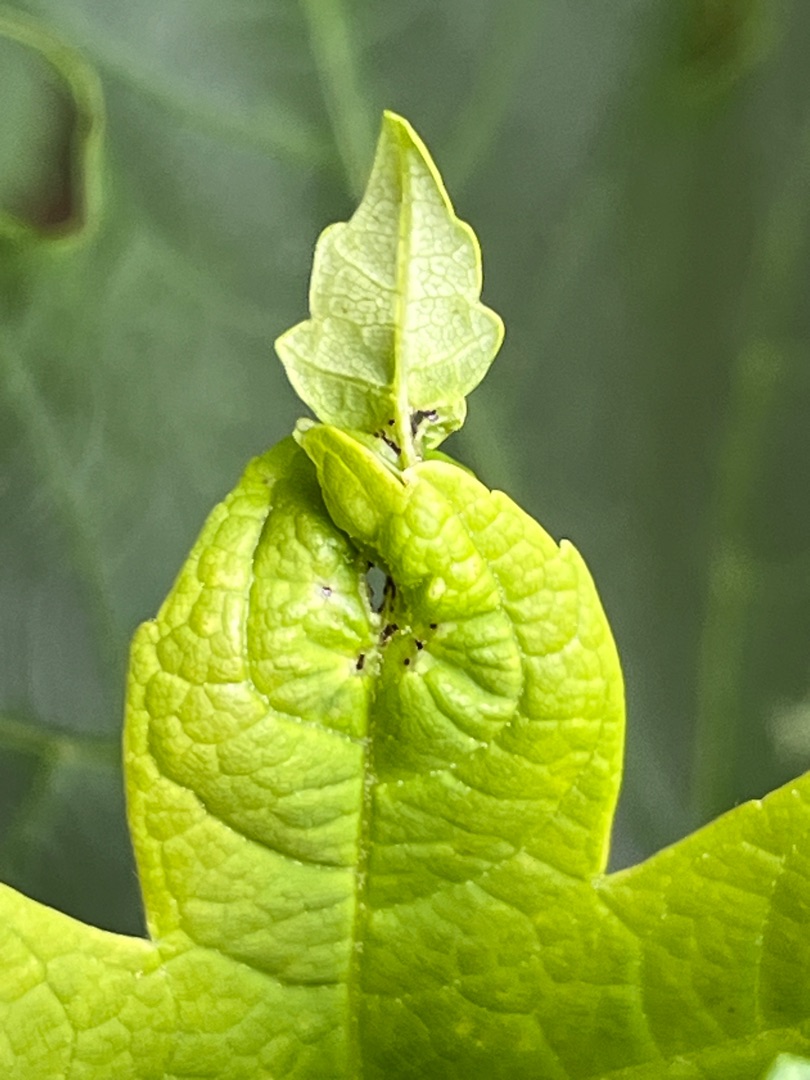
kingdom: Animalia
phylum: Arthropoda
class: Insecta
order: Diptera
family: Cecidomyiidae
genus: Dasineura
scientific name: Dasineura irregularis
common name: Ahornkrusegalmyg
